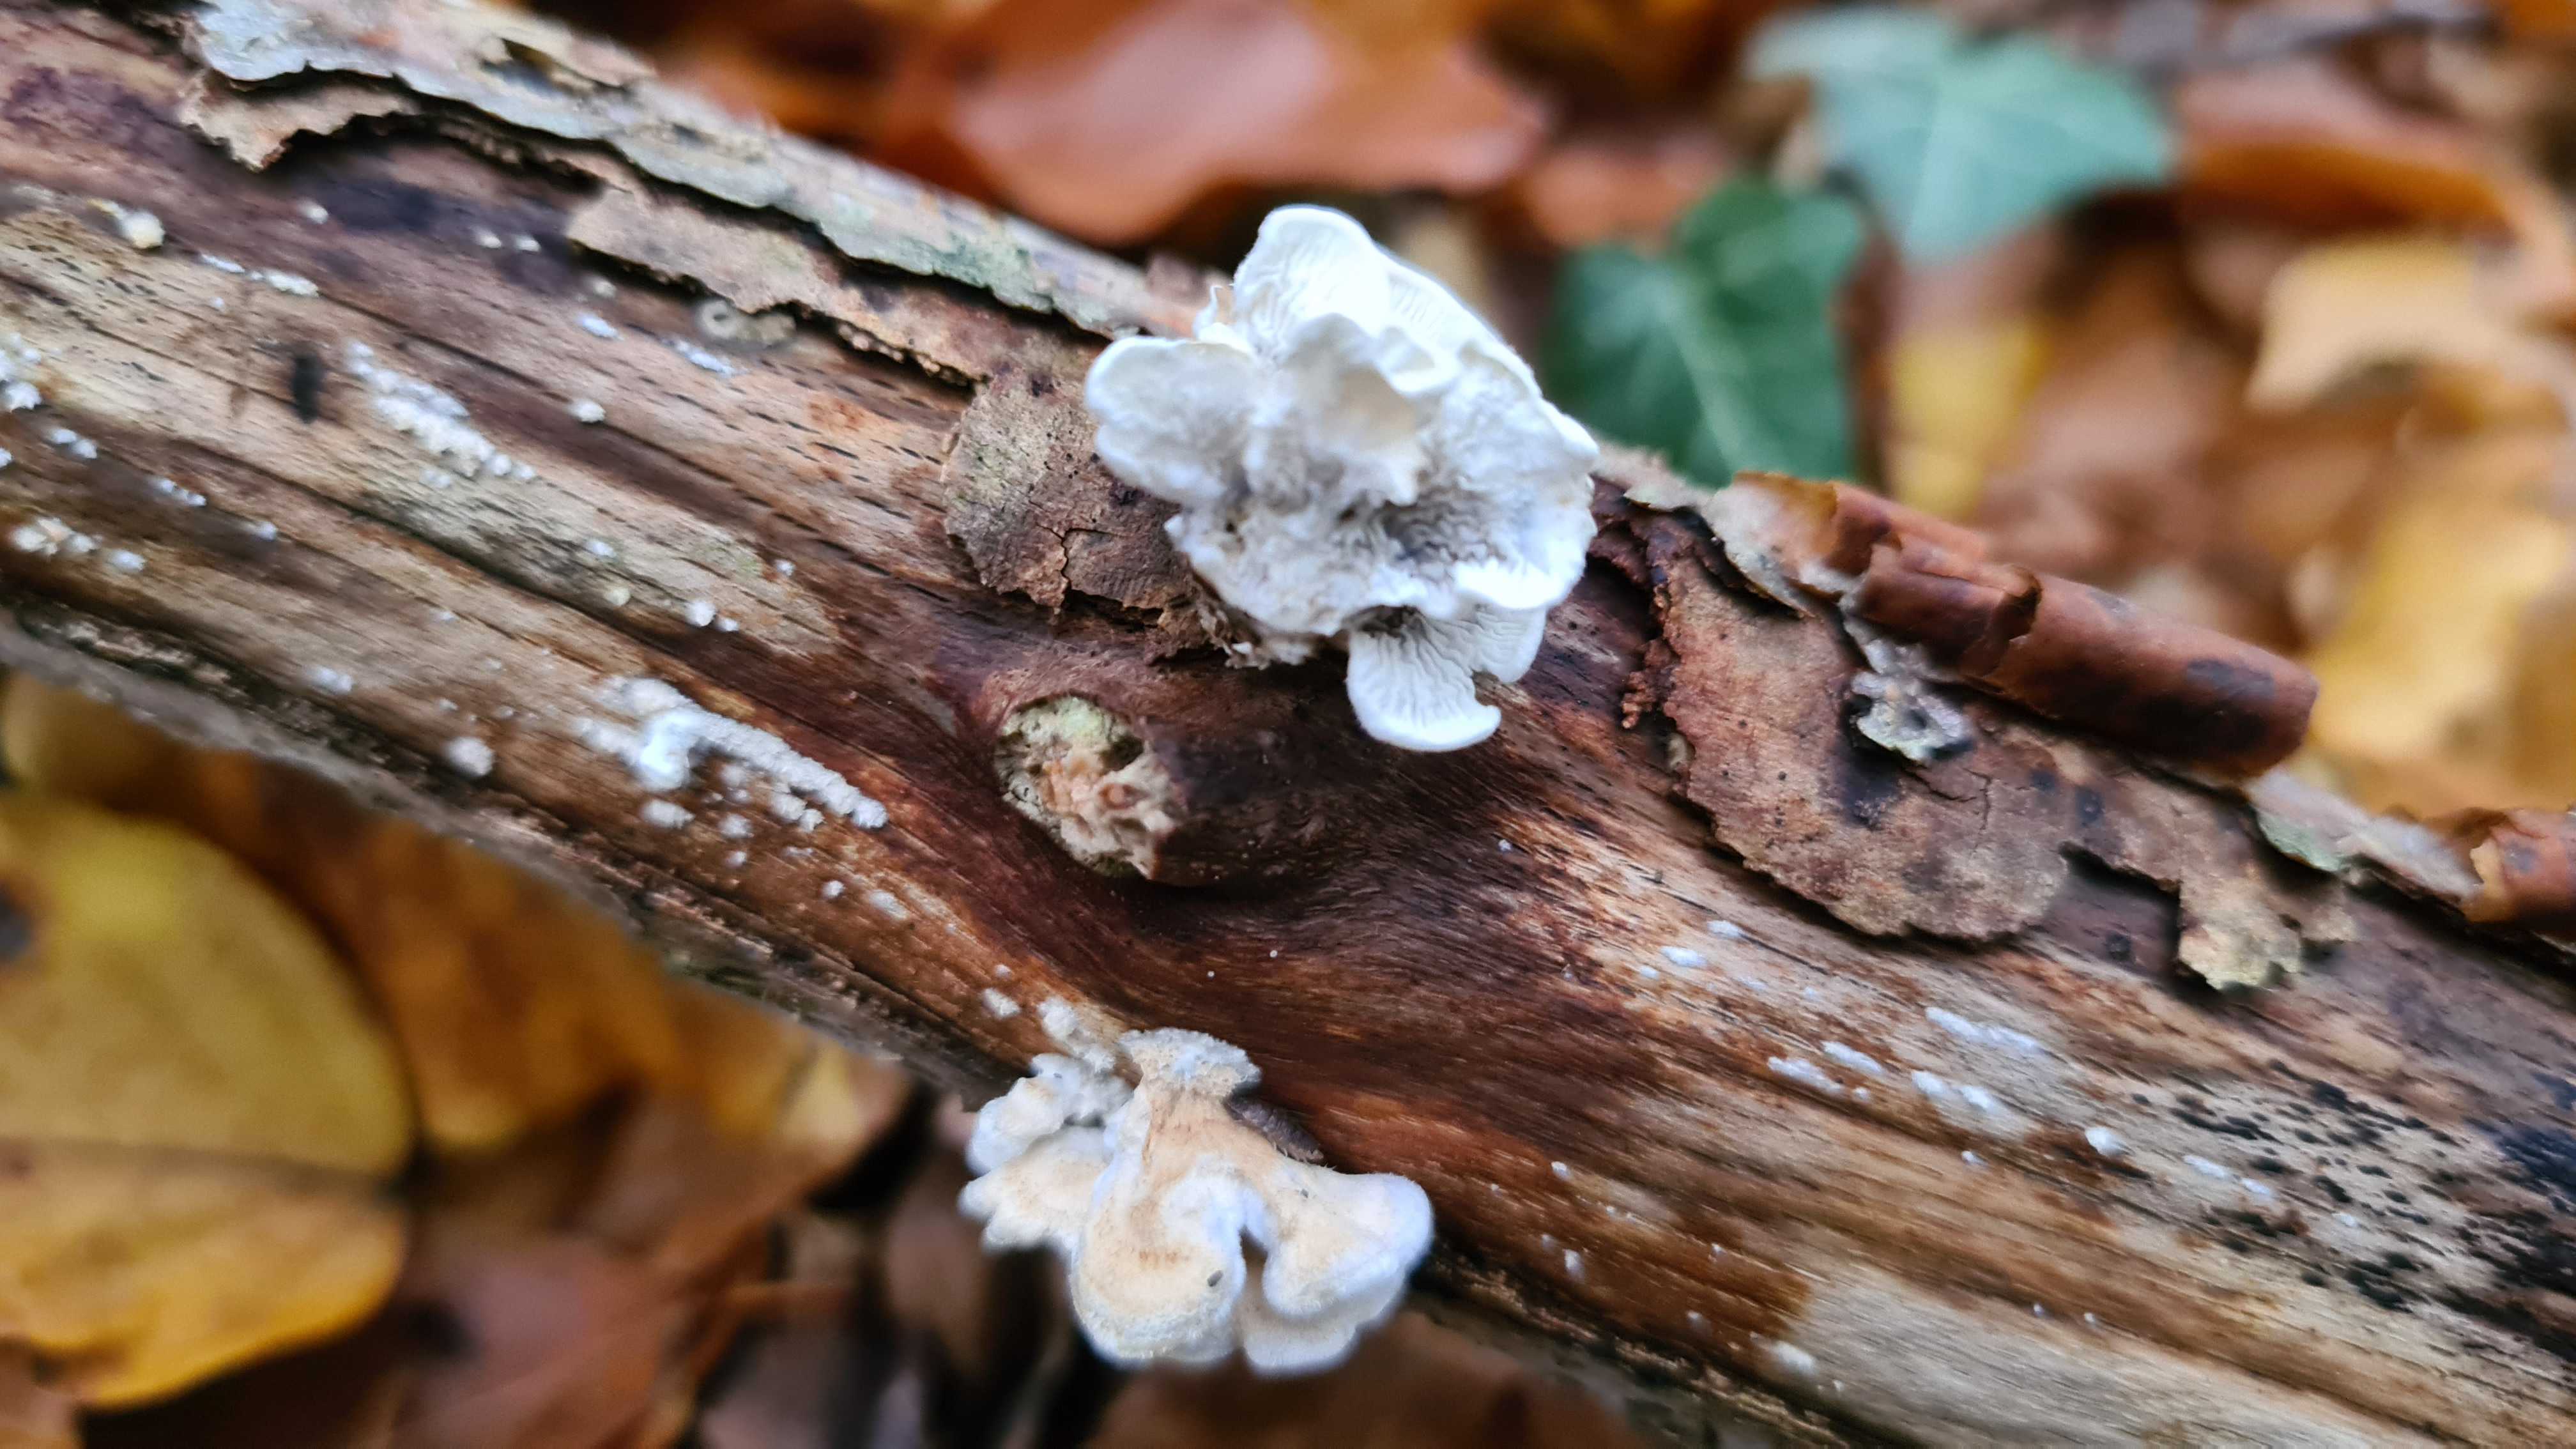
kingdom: Fungi
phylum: Basidiomycota
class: Agaricomycetes
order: Amylocorticiales
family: Amylocorticiaceae
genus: Plicaturopsis
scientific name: Plicaturopsis crispa
